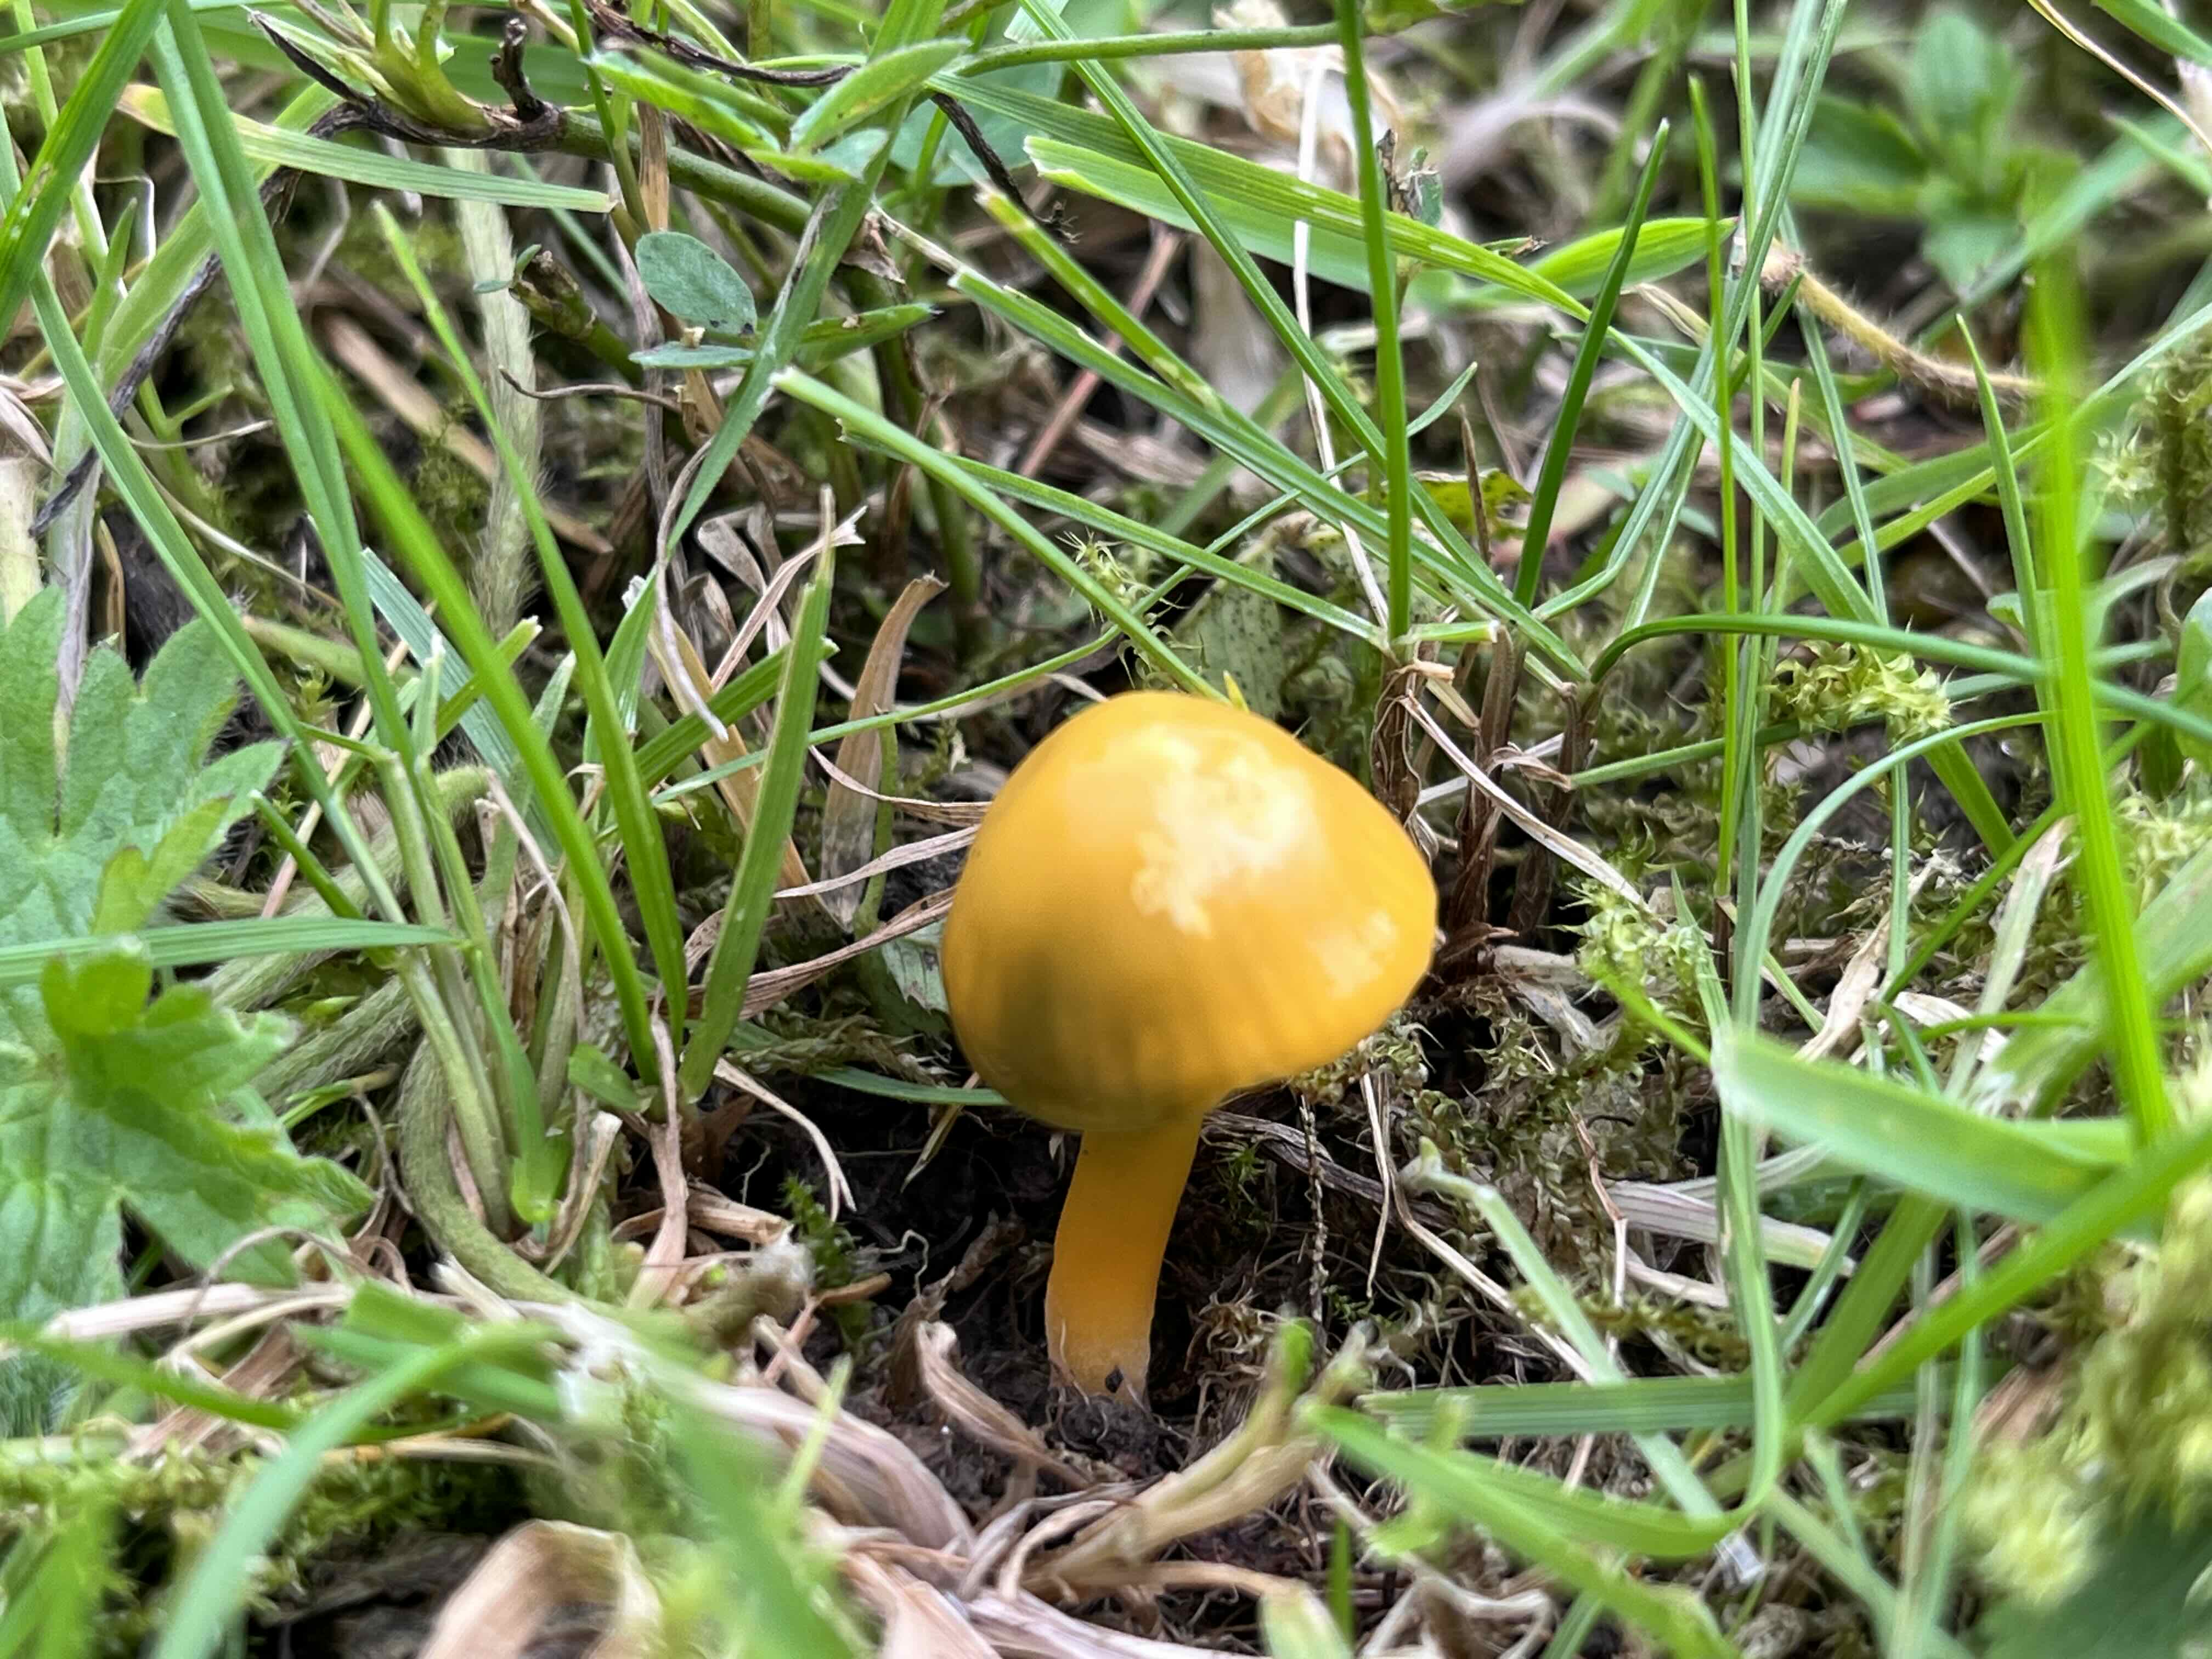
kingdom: Fungi
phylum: Basidiomycota
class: Agaricomycetes
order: Agaricales
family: Hygrophoraceae
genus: Gliophorus
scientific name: Gliophorus psittacinus
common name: papegøje-vokshat
